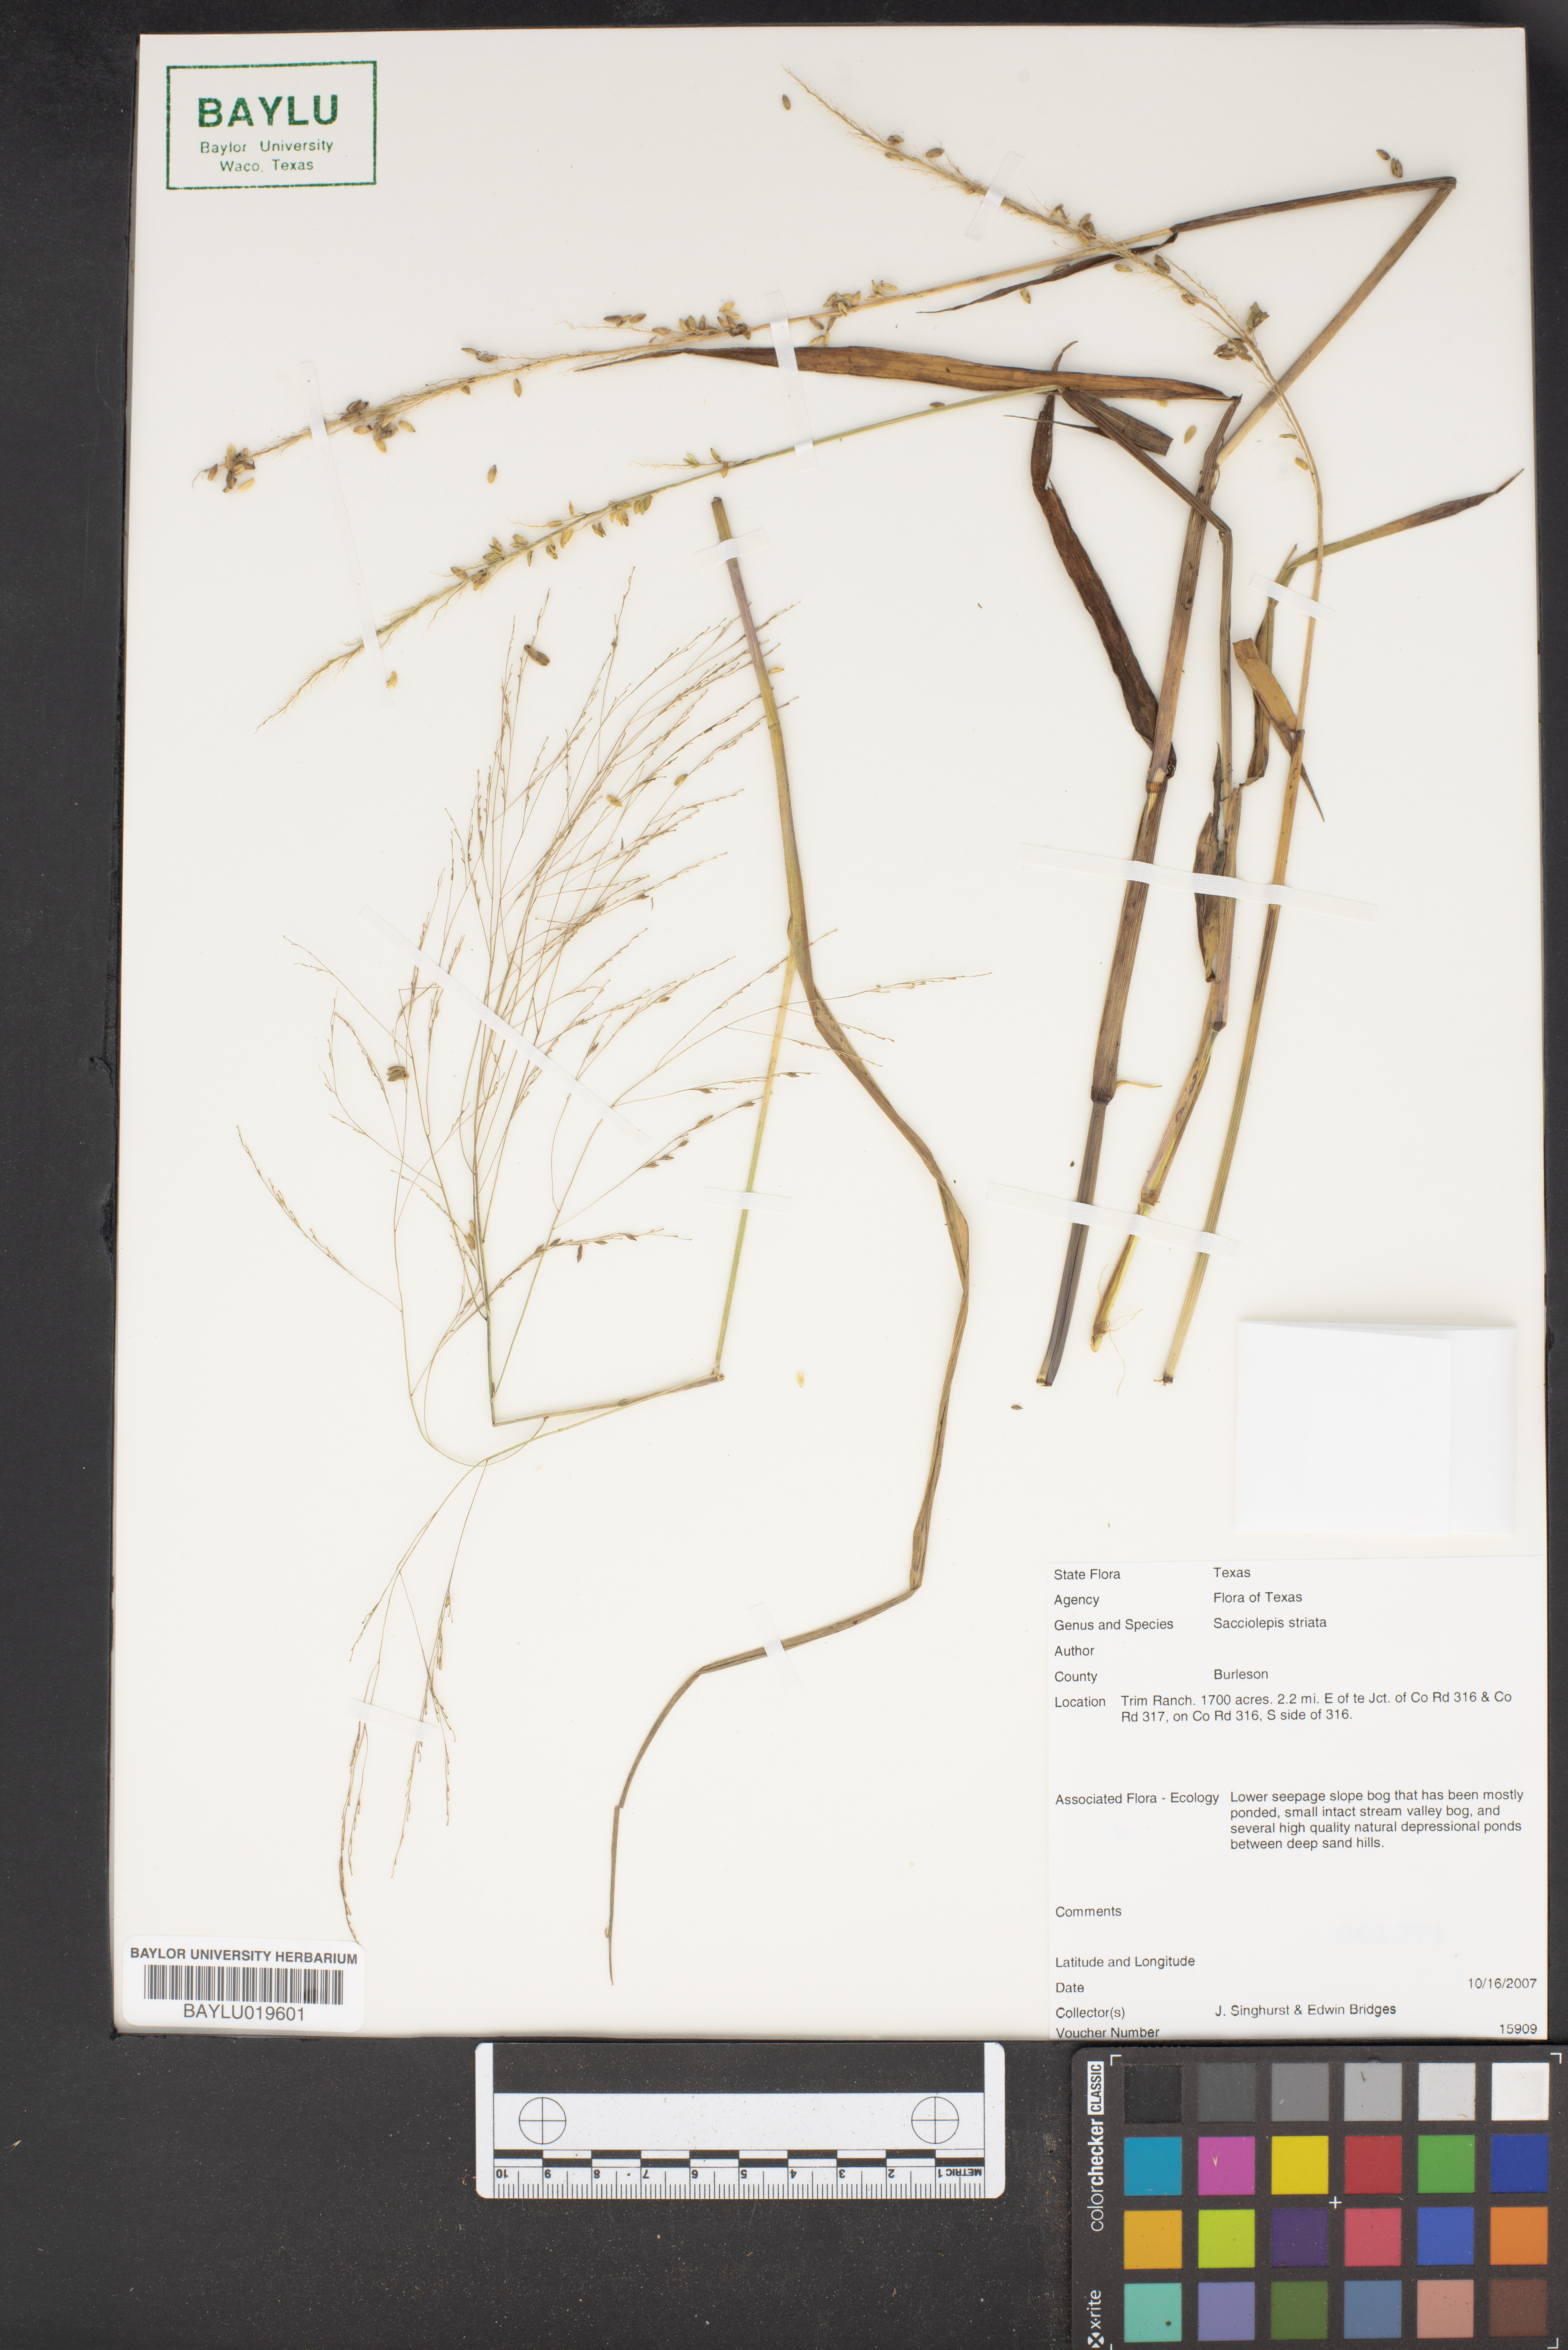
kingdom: Plantae
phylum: Tracheophyta
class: Liliopsida
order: Poales
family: Poaceae
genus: Sacciolepis
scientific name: Sacciolepis striata
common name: American cupscale
